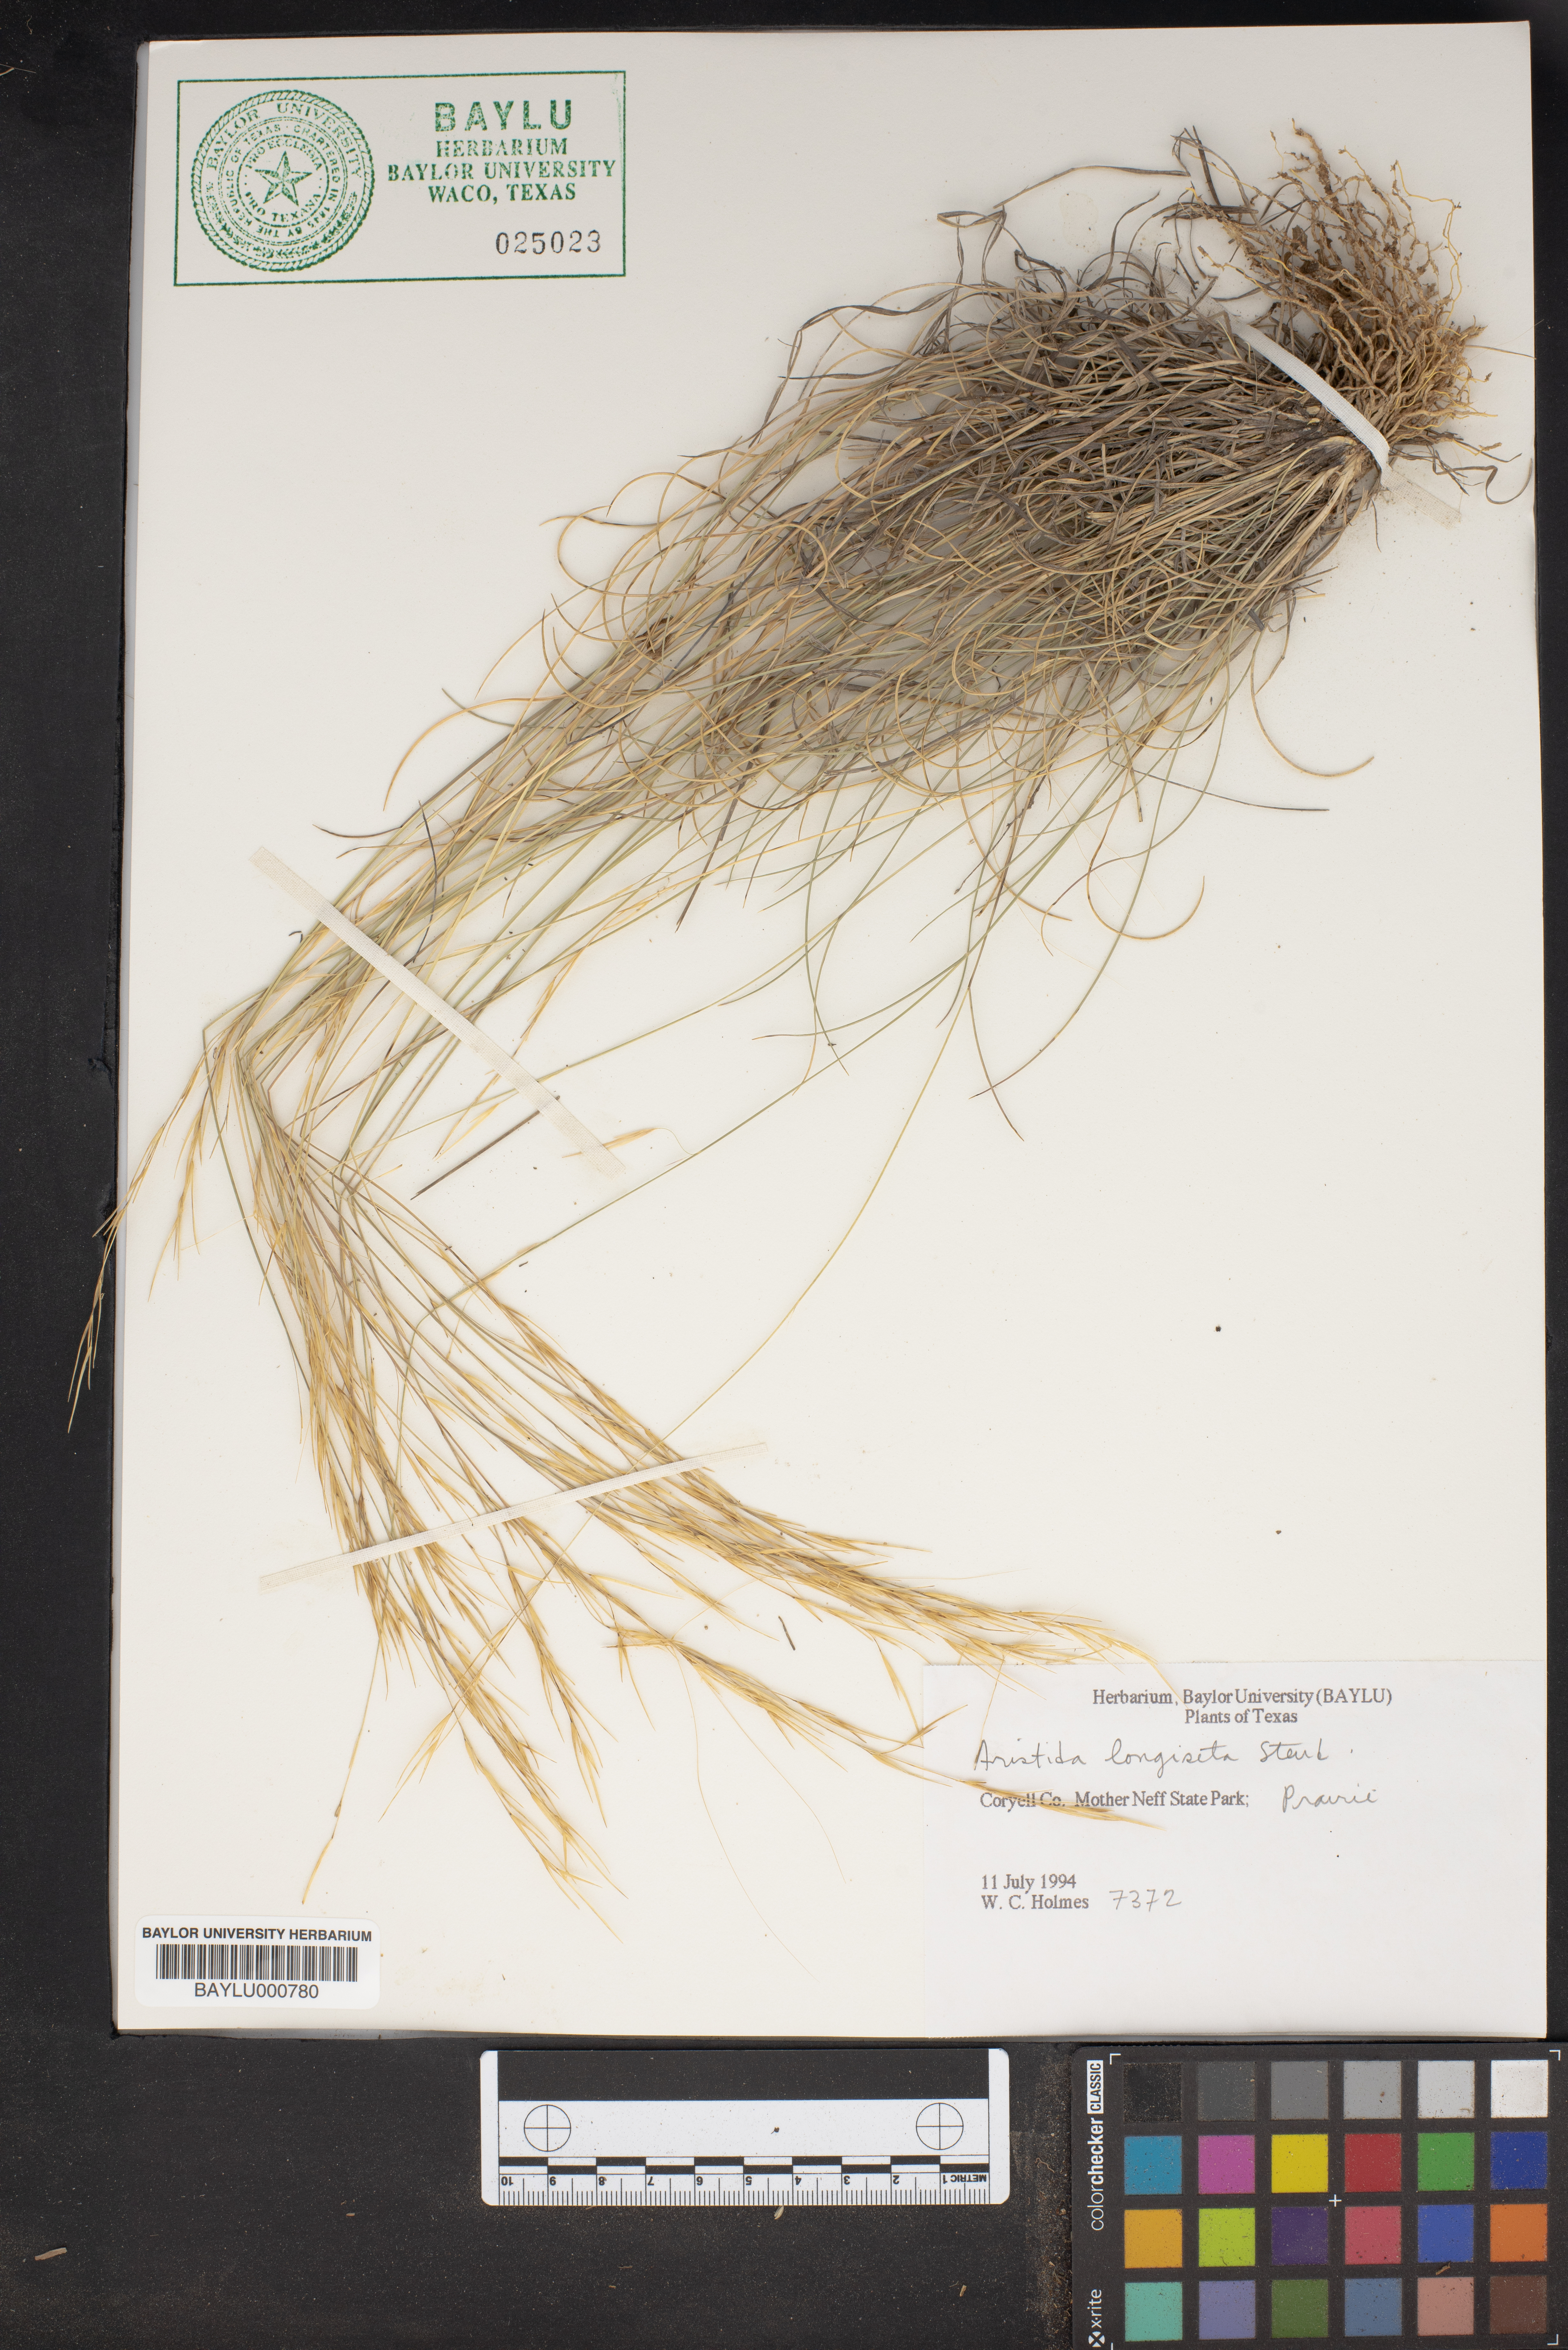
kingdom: Plantae
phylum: Tracheophyta
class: Liliopsida
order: Poales
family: Poaceae
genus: Aristida
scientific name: Aristida longiseta
